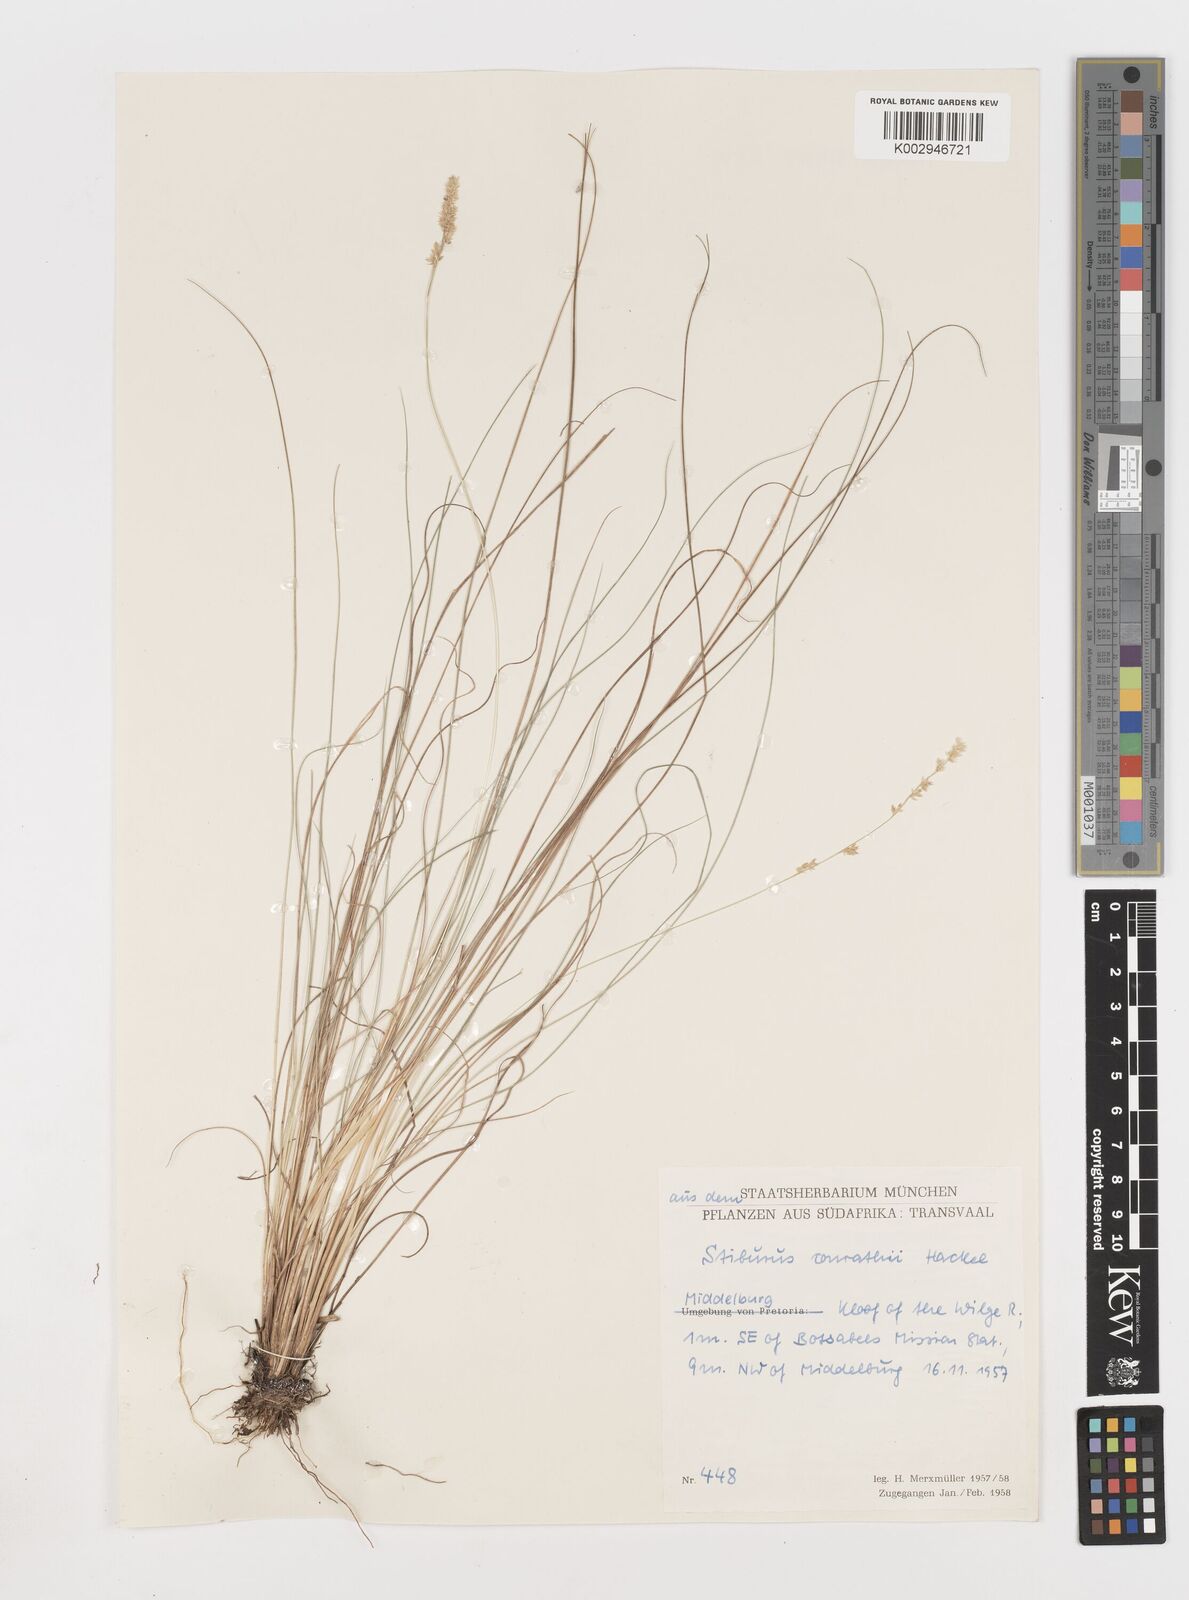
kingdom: Plantae
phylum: Tracheophyta
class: Liliopsida
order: Poales
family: Poaceae
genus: Stiburus
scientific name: Stiburus conrathii
